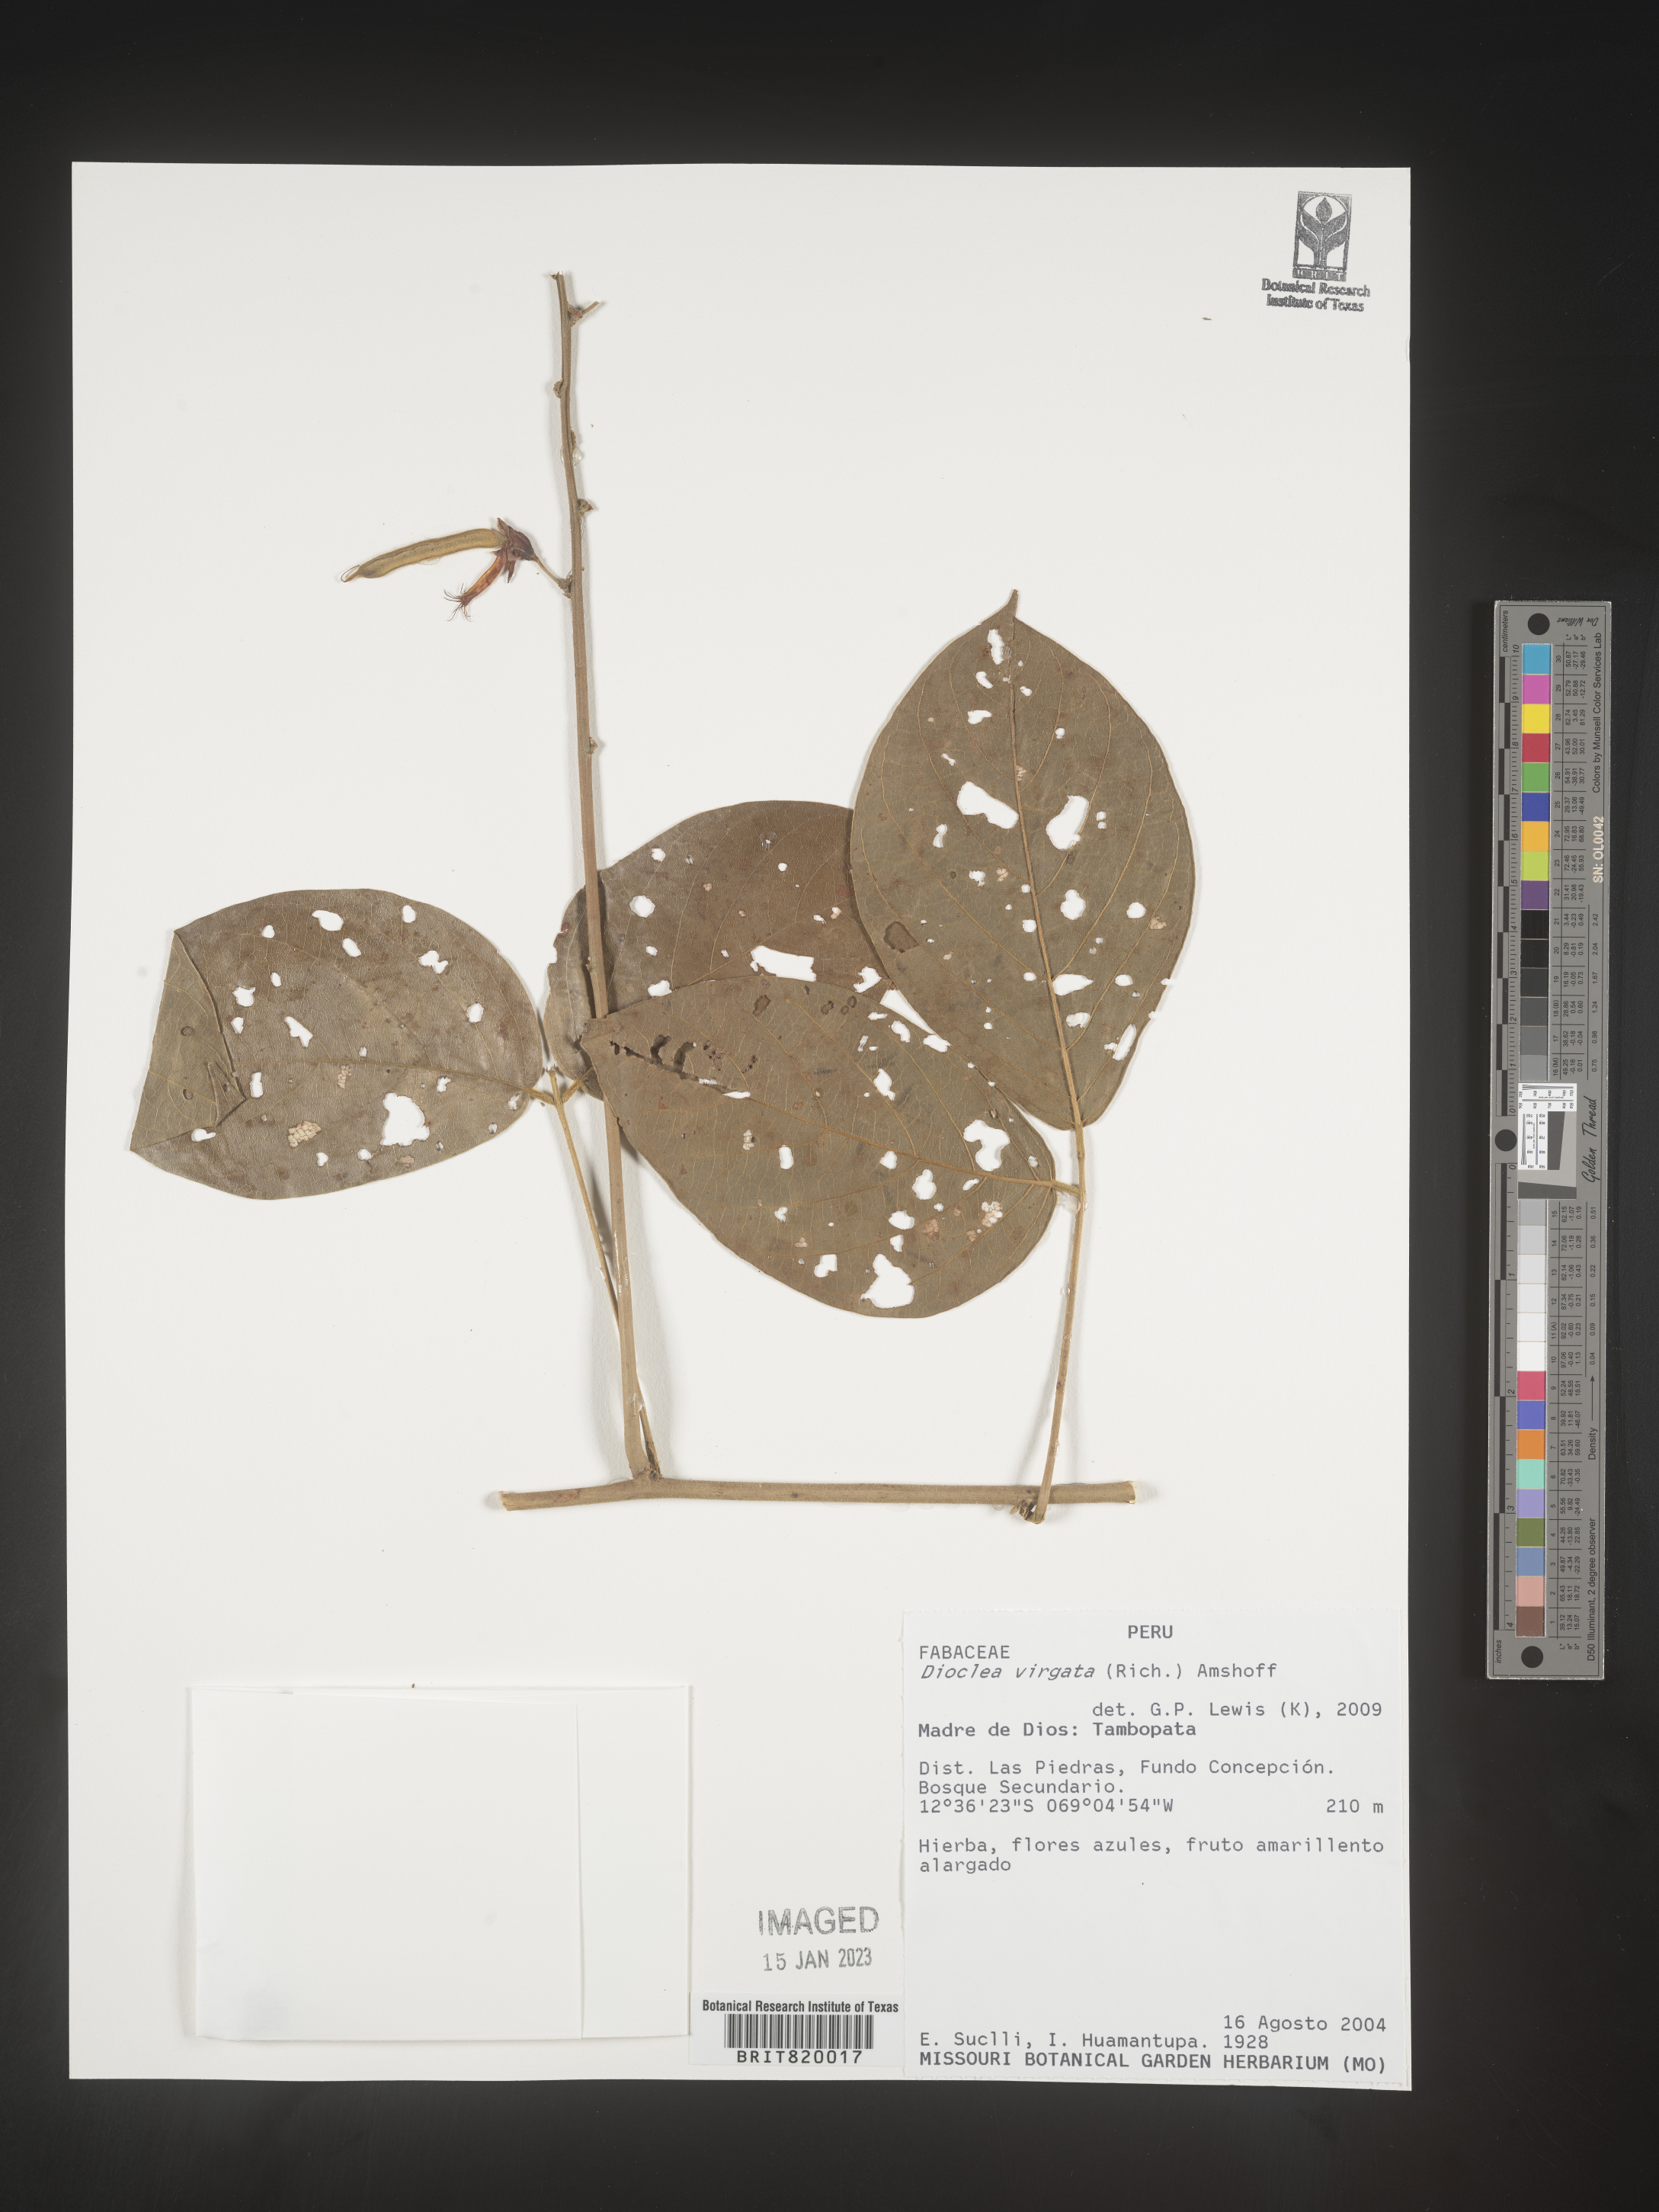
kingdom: Plantae
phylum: Tracheophyta
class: Magnoliopsida
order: Fabales
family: Fabaceae
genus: Dioclea
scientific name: Dioclea
